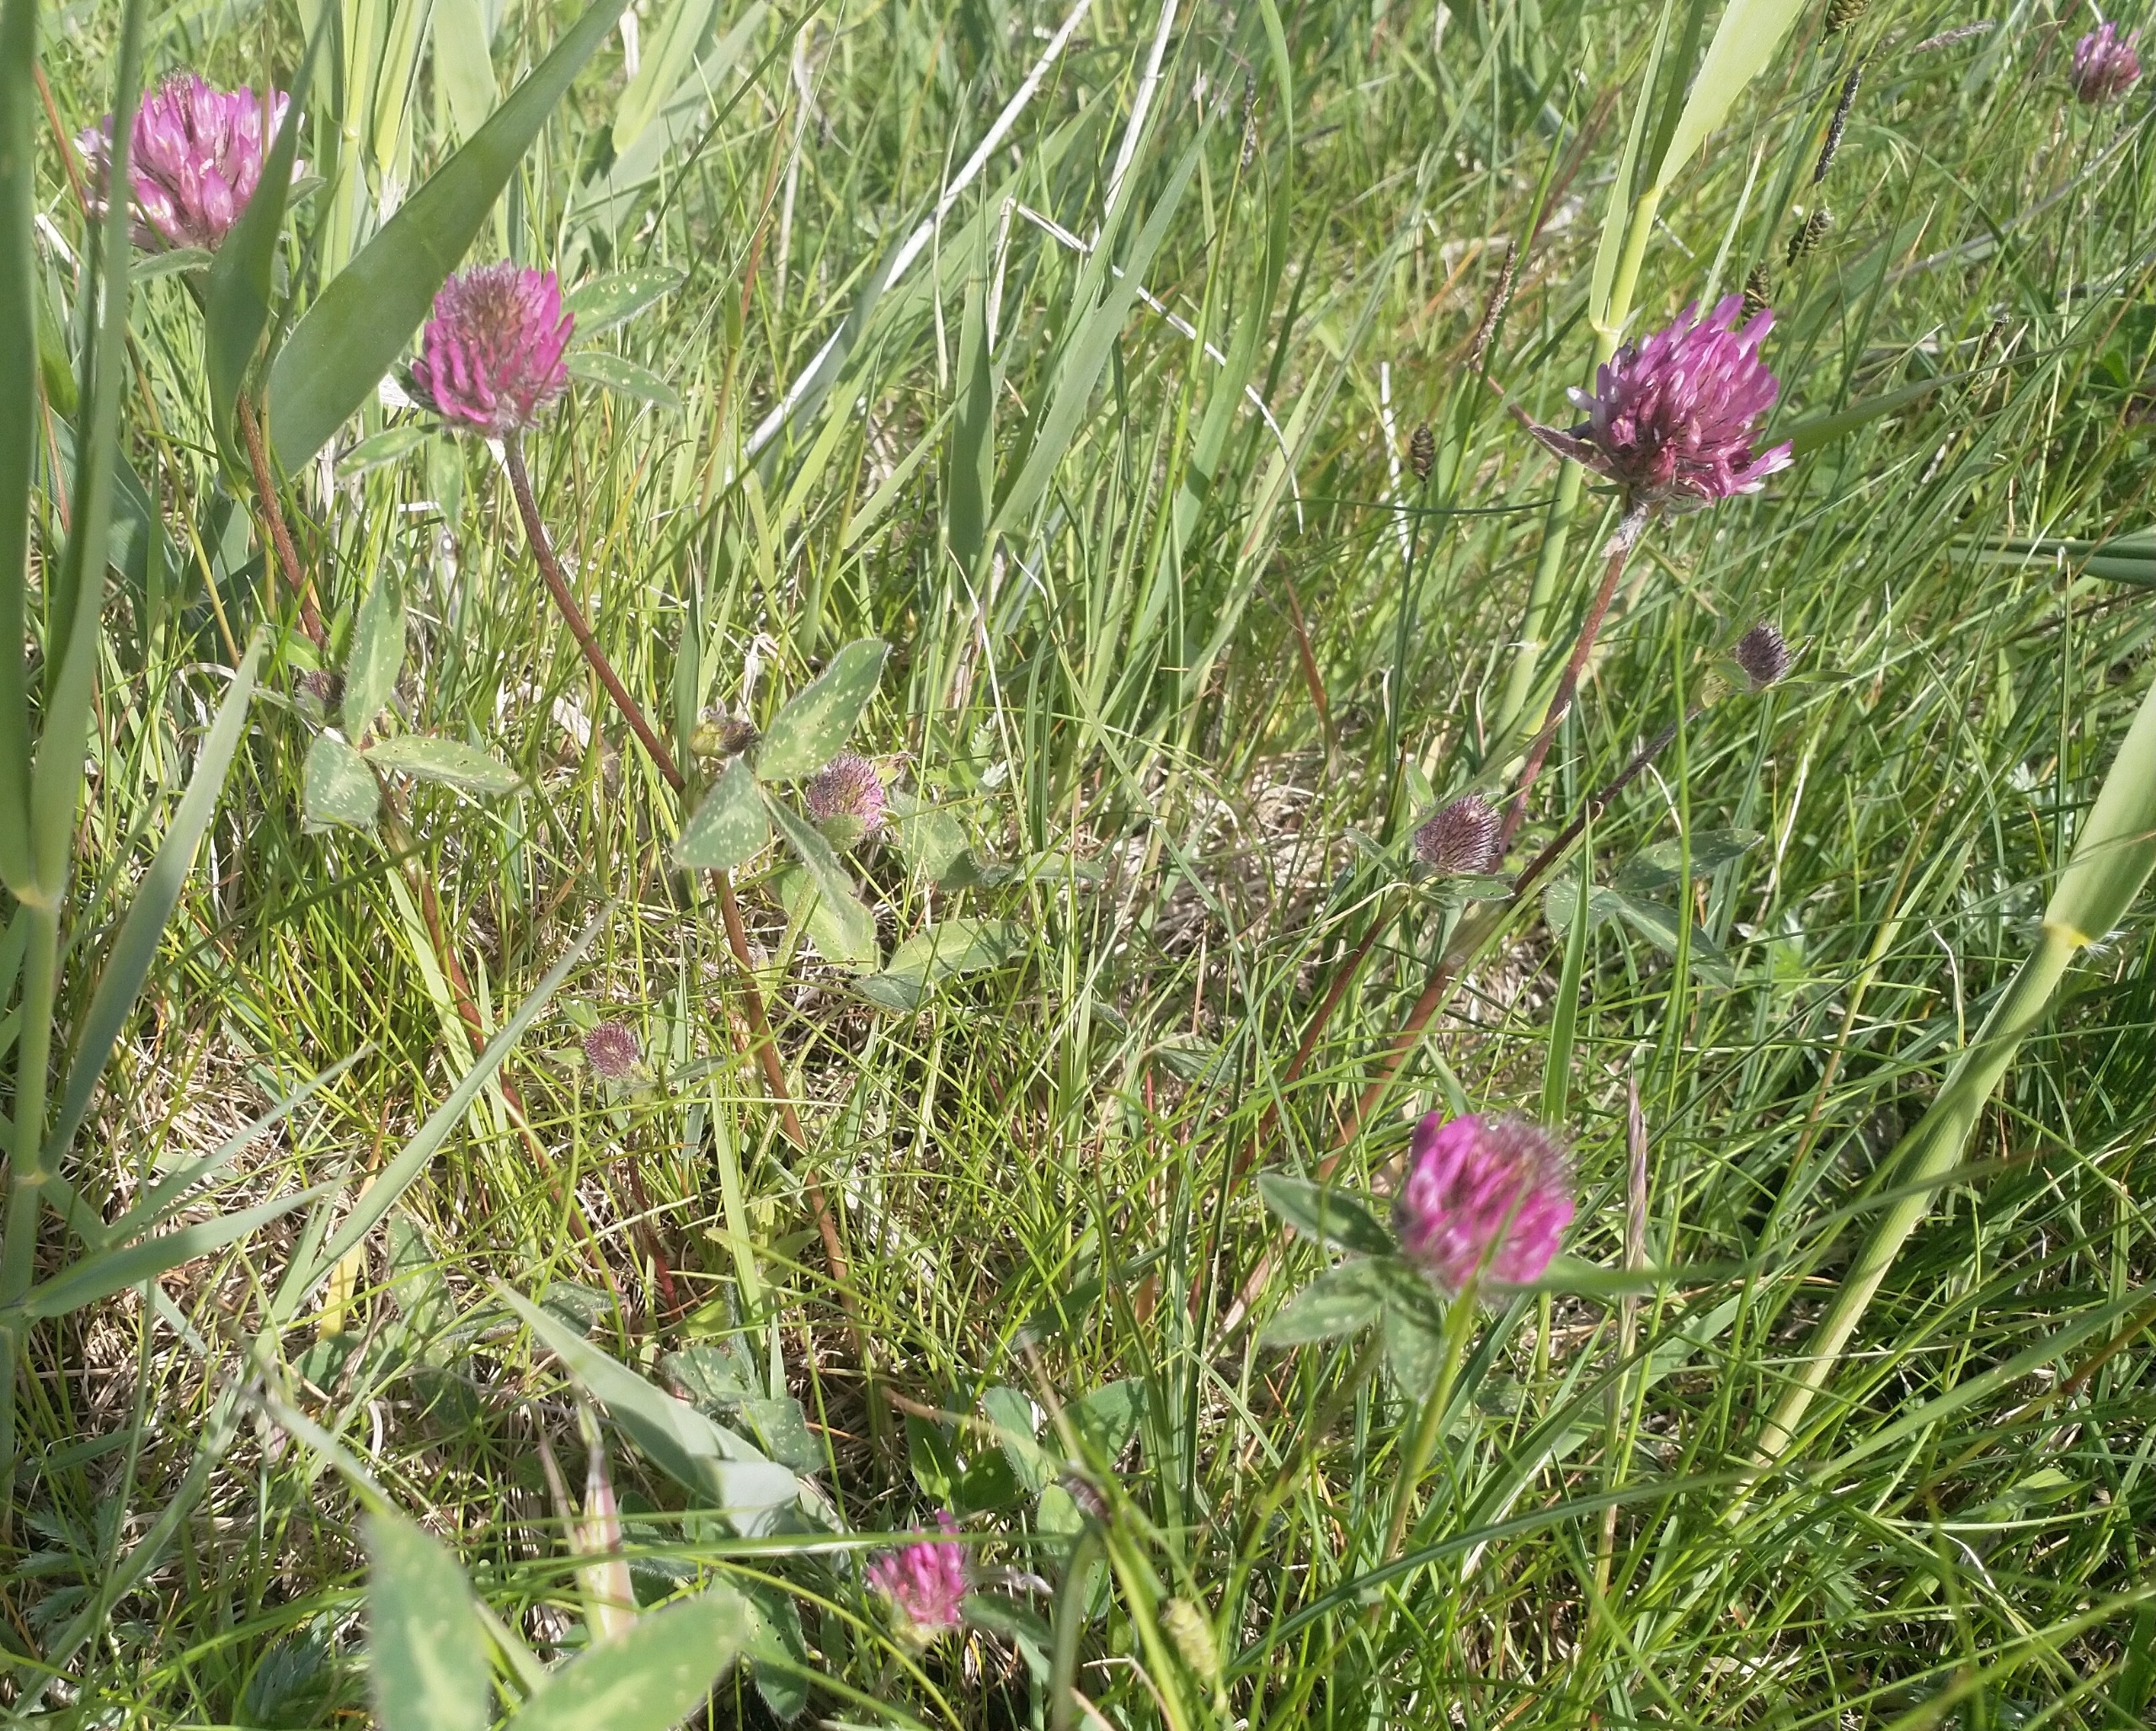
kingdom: Plantae
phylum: Tracheophyta
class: Magnoliopsida
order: Fabales
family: Fabaceae
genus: Trifolium
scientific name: Trifolium pratense
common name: Rød-kløver
